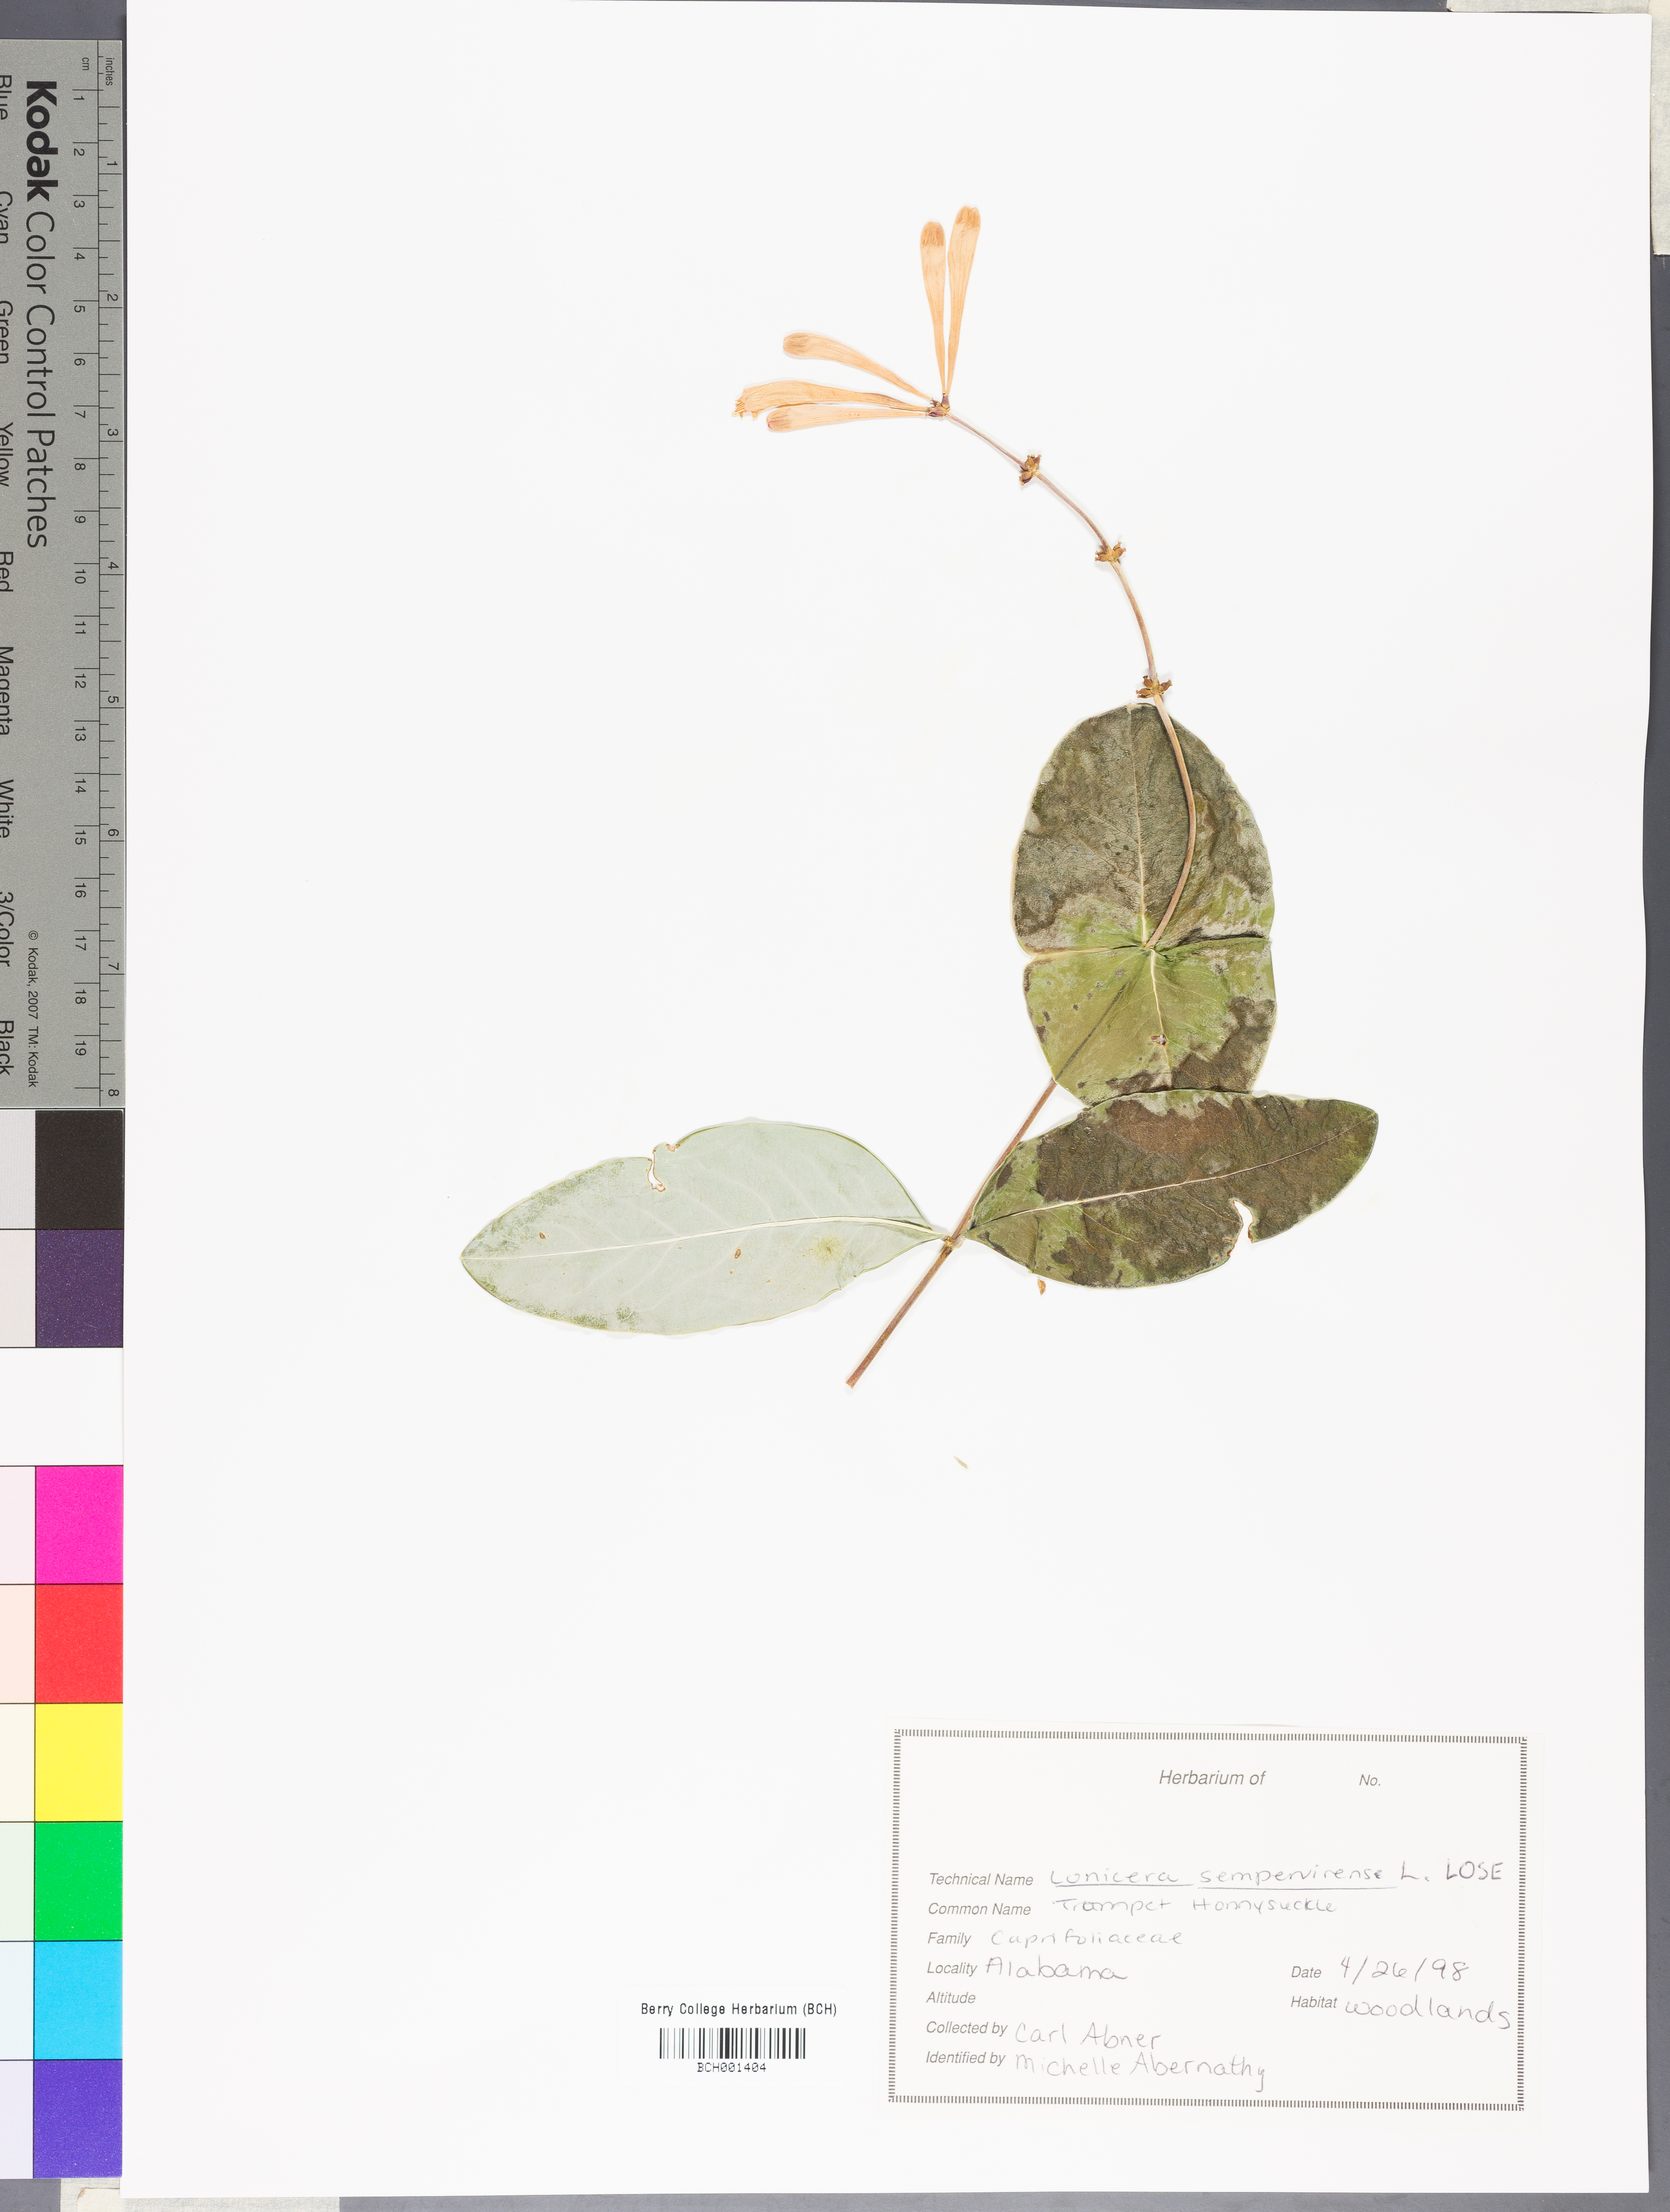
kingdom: Plantae
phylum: Tracheophyta
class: Magnoliopsida
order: Dipsacales
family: Caprifoliaceae
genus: Lonicera
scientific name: Lonicera sempervirens
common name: Coral honeysuckle
